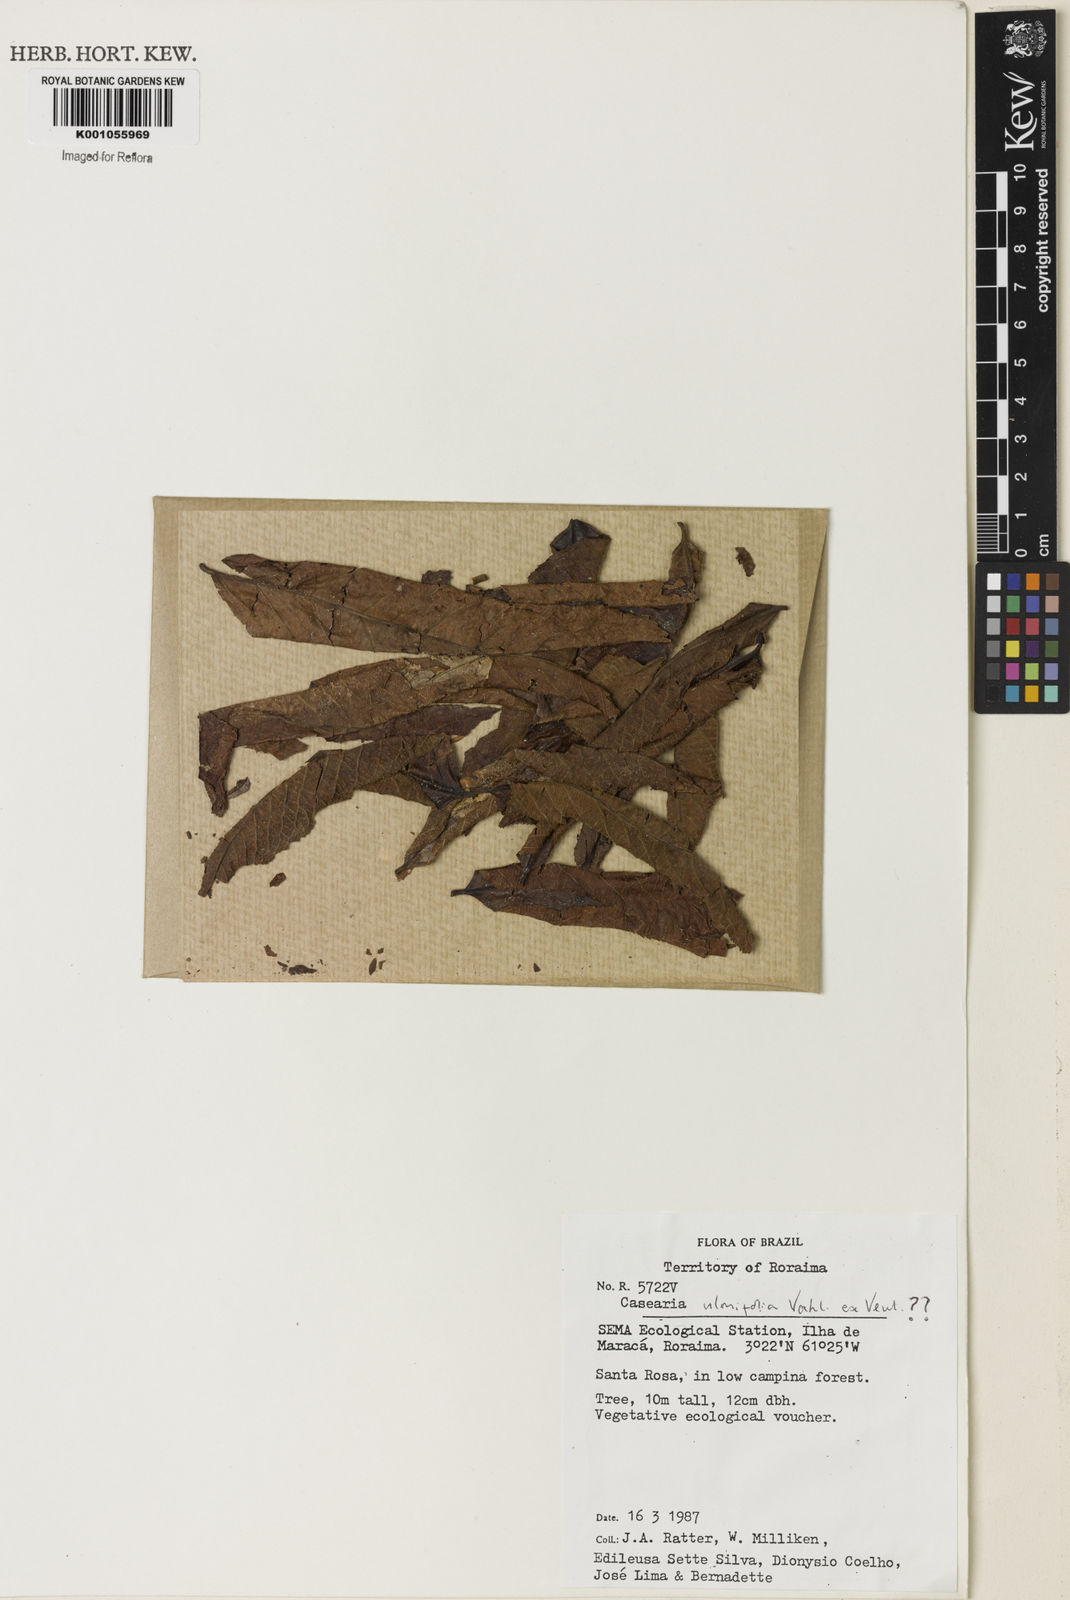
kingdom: Plantae
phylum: Tracheophyta
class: Magnoliopsida
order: Malpighiales
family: Salicaceae
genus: Casearia
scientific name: Casearia ulmifolia
